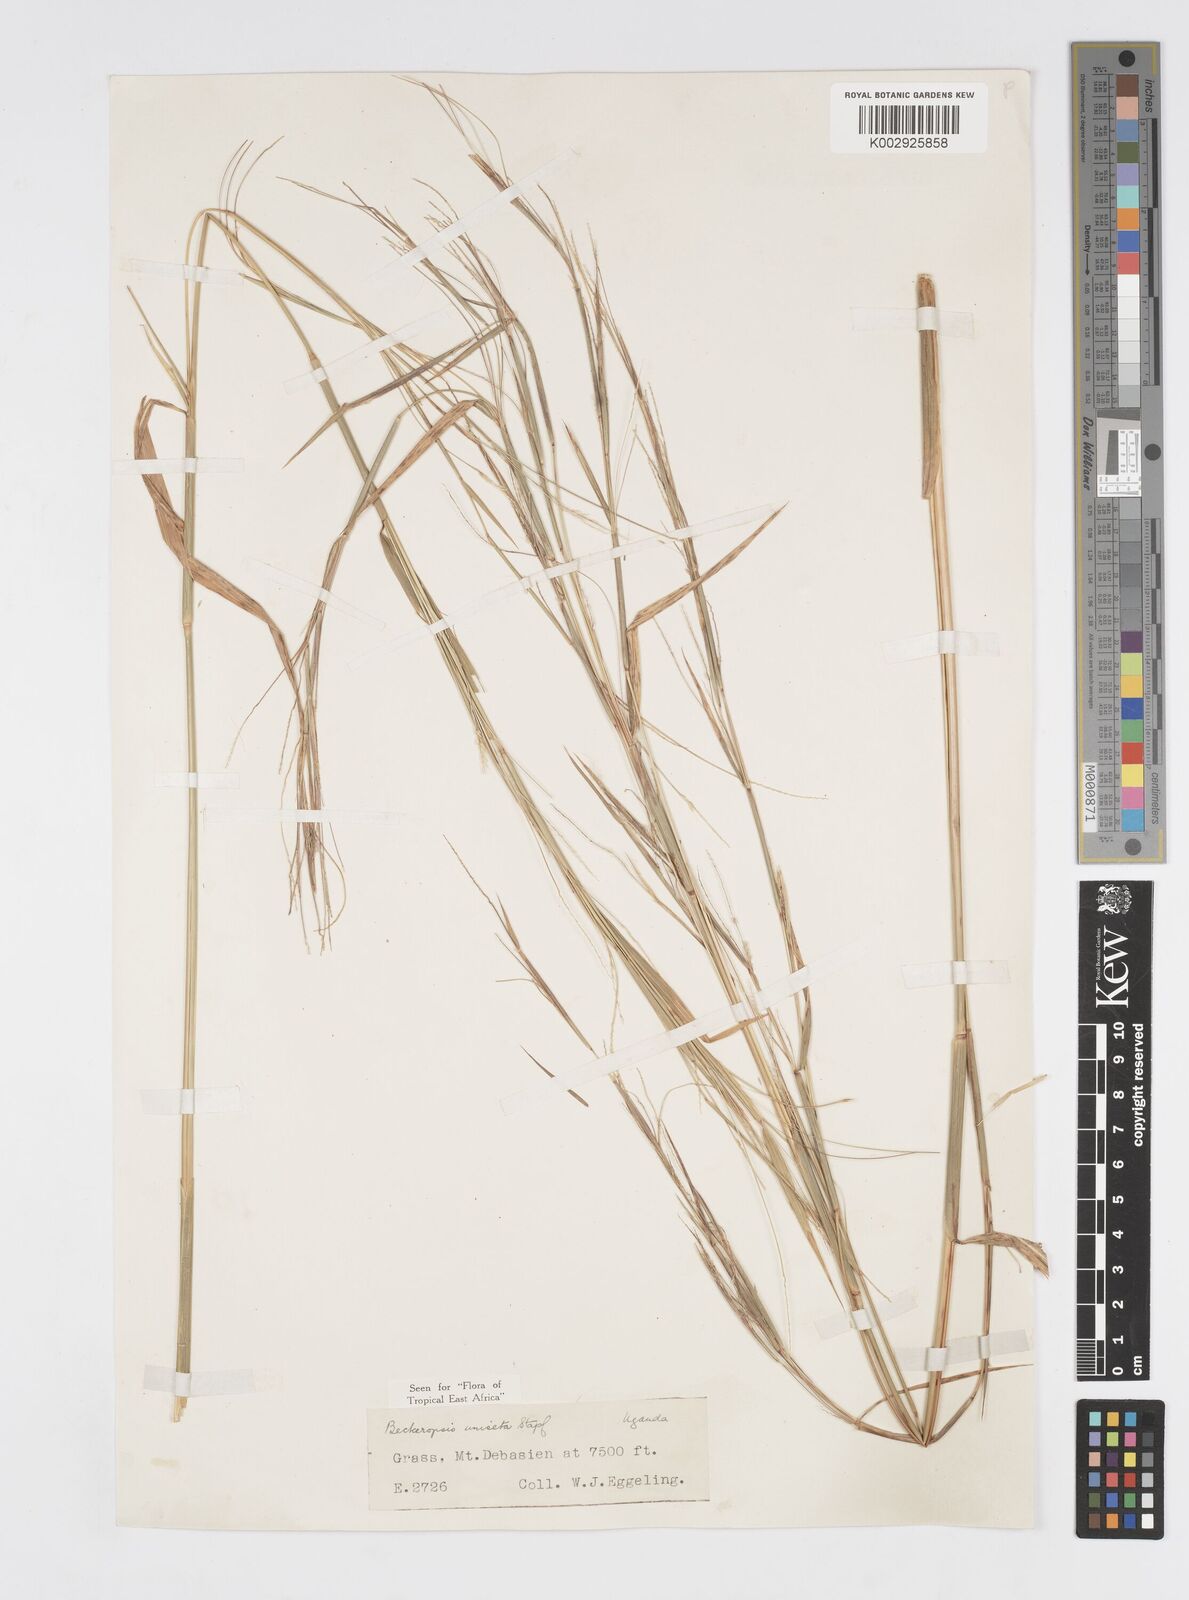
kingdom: Plantae
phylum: Tracheophyta
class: Liliopsida
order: Poales
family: Poaceae
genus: Cenchrus
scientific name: Cenchrus unisetus
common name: Natal grass
